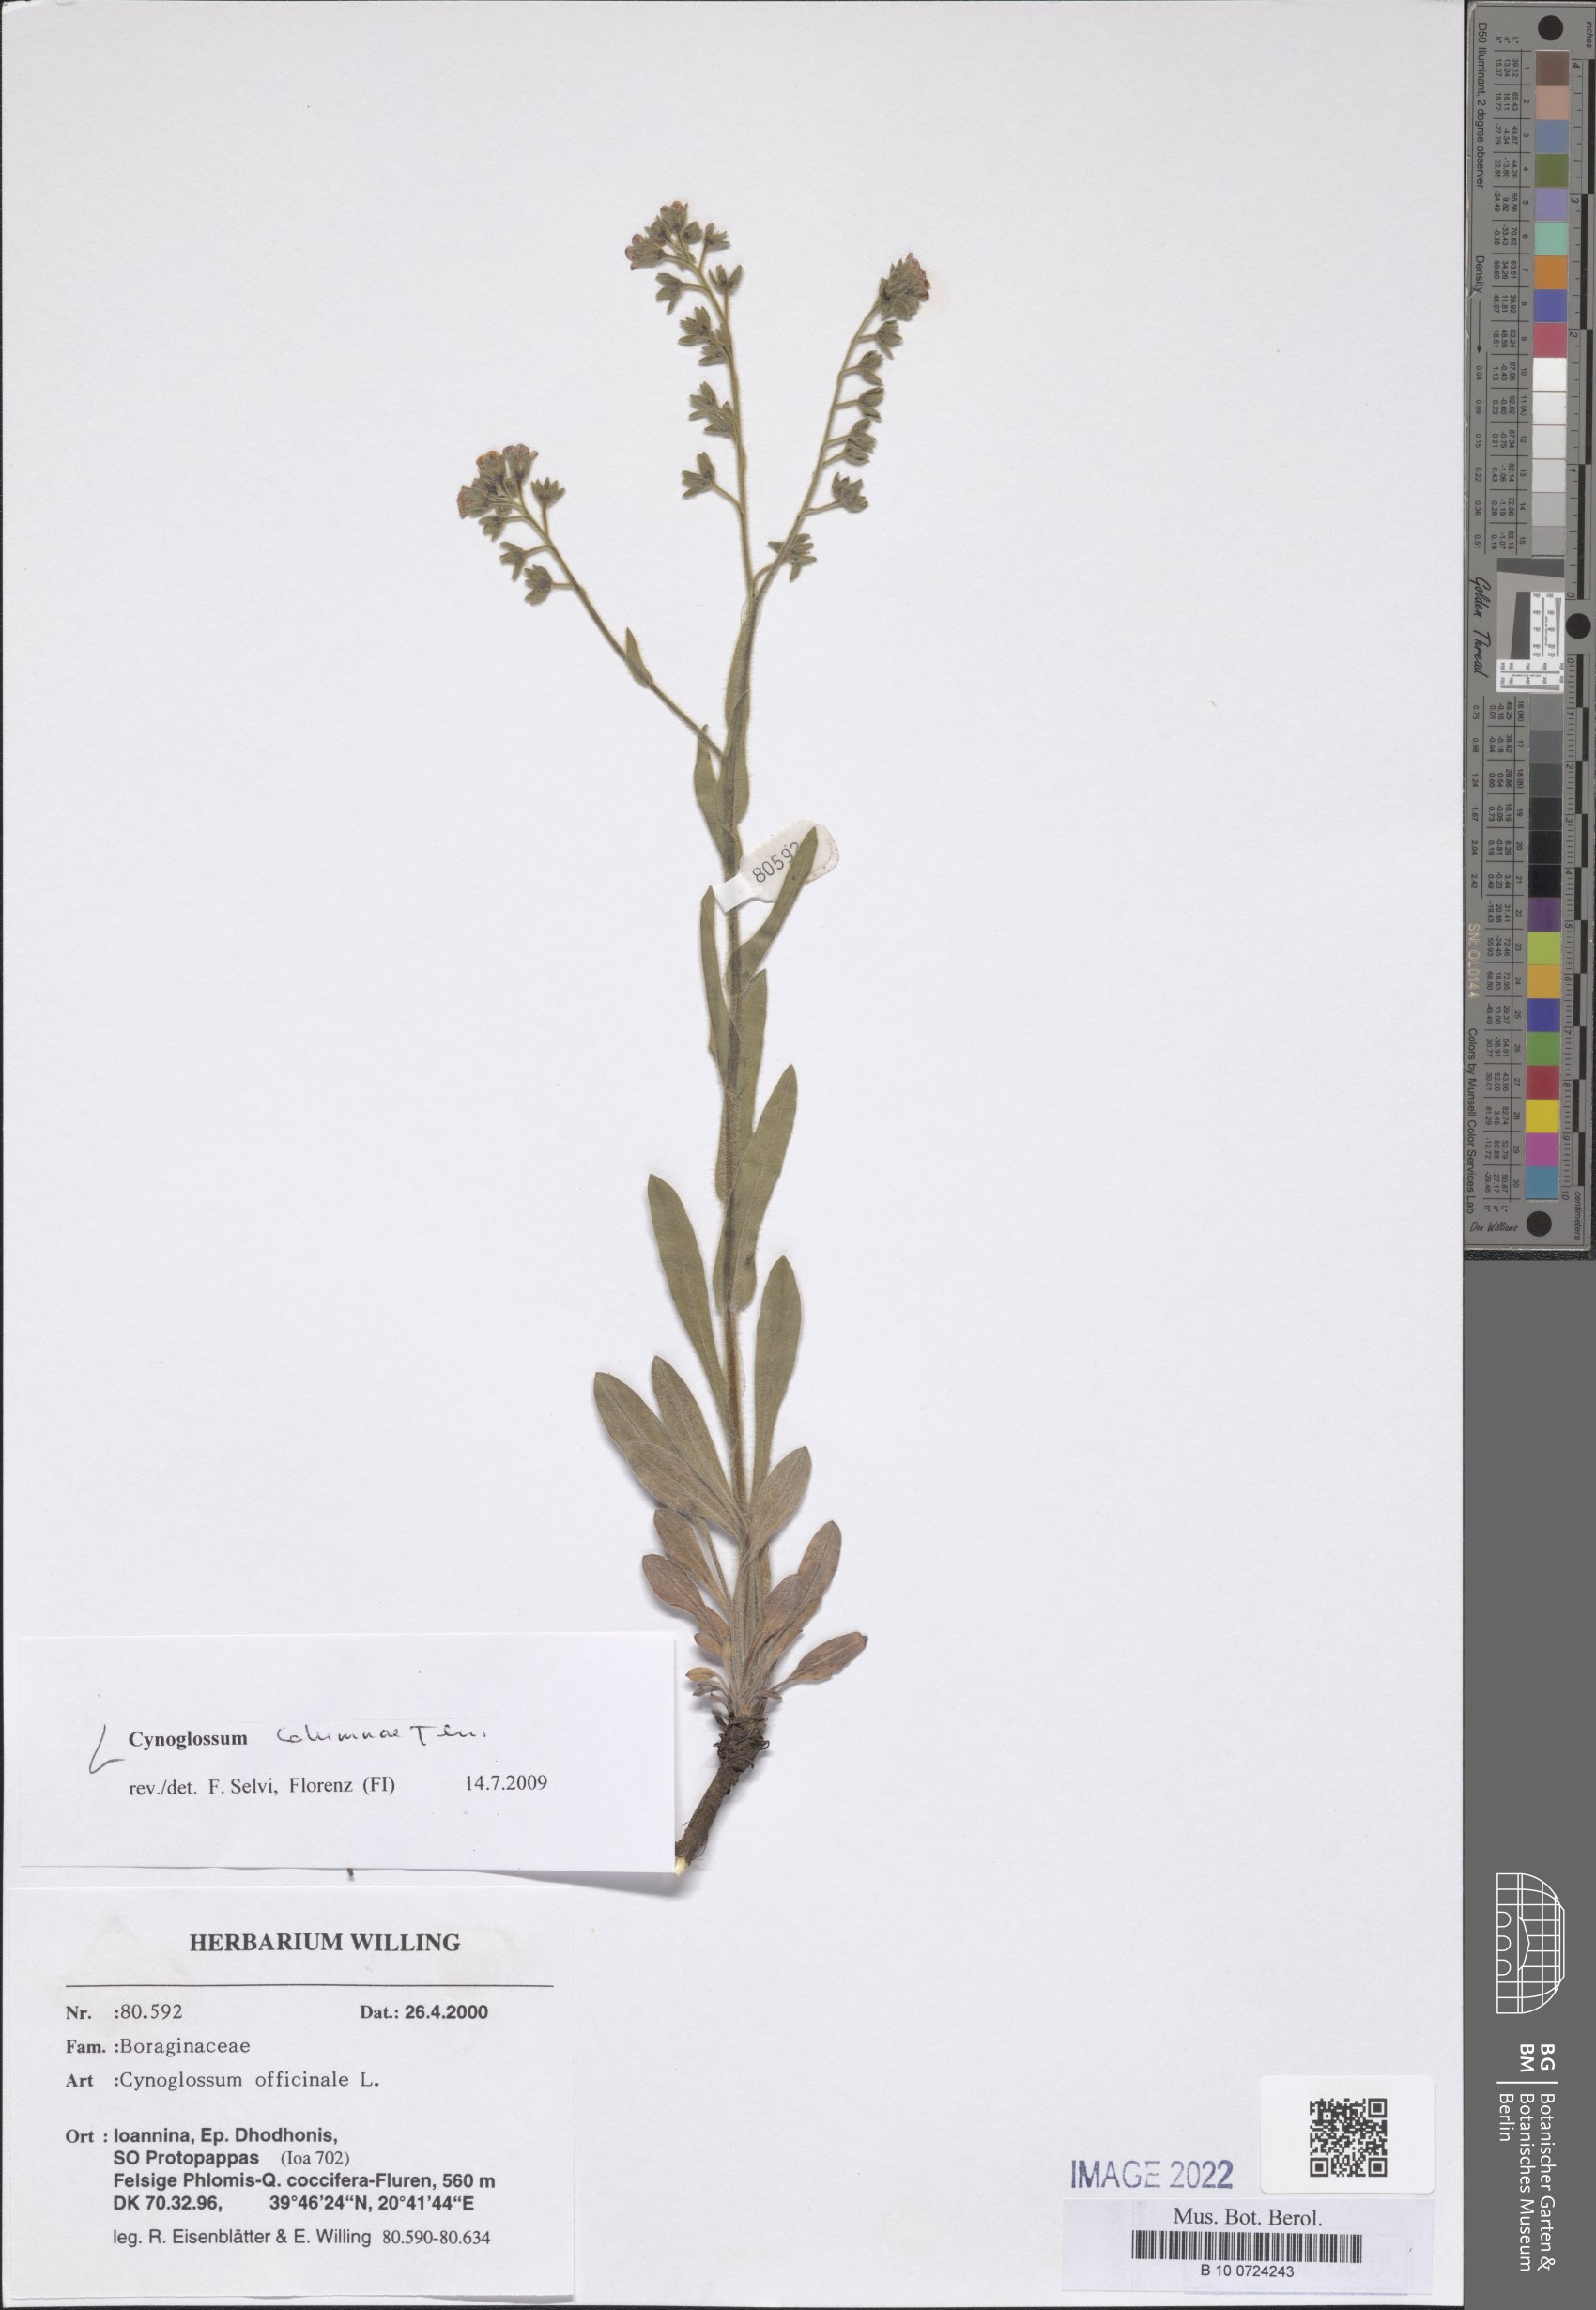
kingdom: Plantae
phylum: Tracheophyta
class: Magnoliopsida
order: Boraginales
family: Boraginaceae
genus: Rindera
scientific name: Rindera columnae
